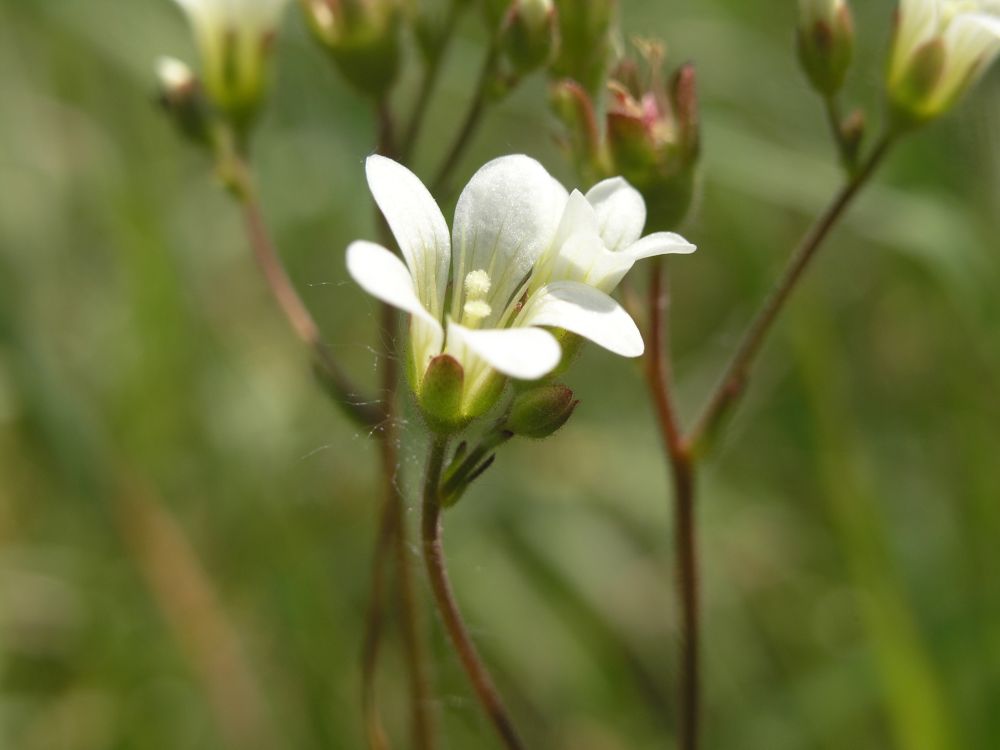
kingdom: Plantae
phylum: Tracheophyta
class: Magnoliopsida
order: Saxifragales
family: Saxifragaceae
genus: Saxifraga
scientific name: Saxifraga granulata
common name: Meadow saxifrage
